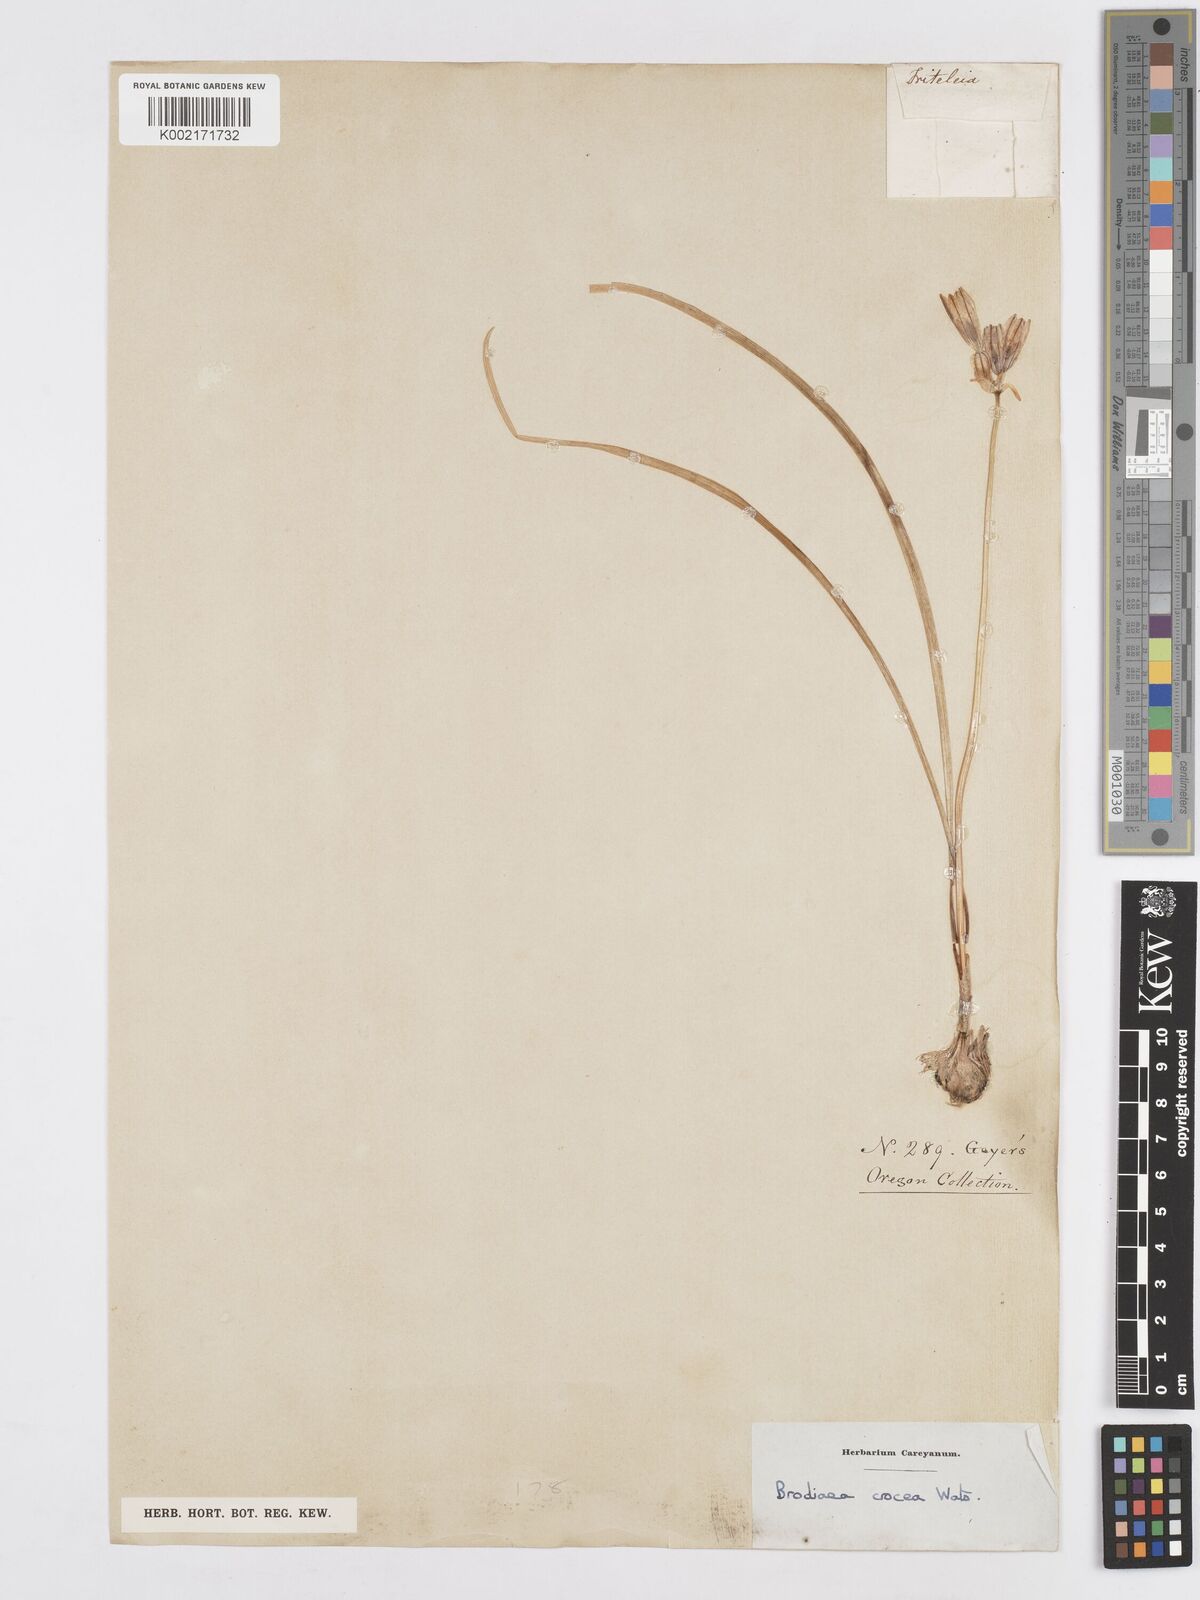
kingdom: Plantae
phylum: Tracheophyta
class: Liliopsida
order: Asparagales
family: Asparagaceae
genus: Triteleia
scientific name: Triteleia crocea
